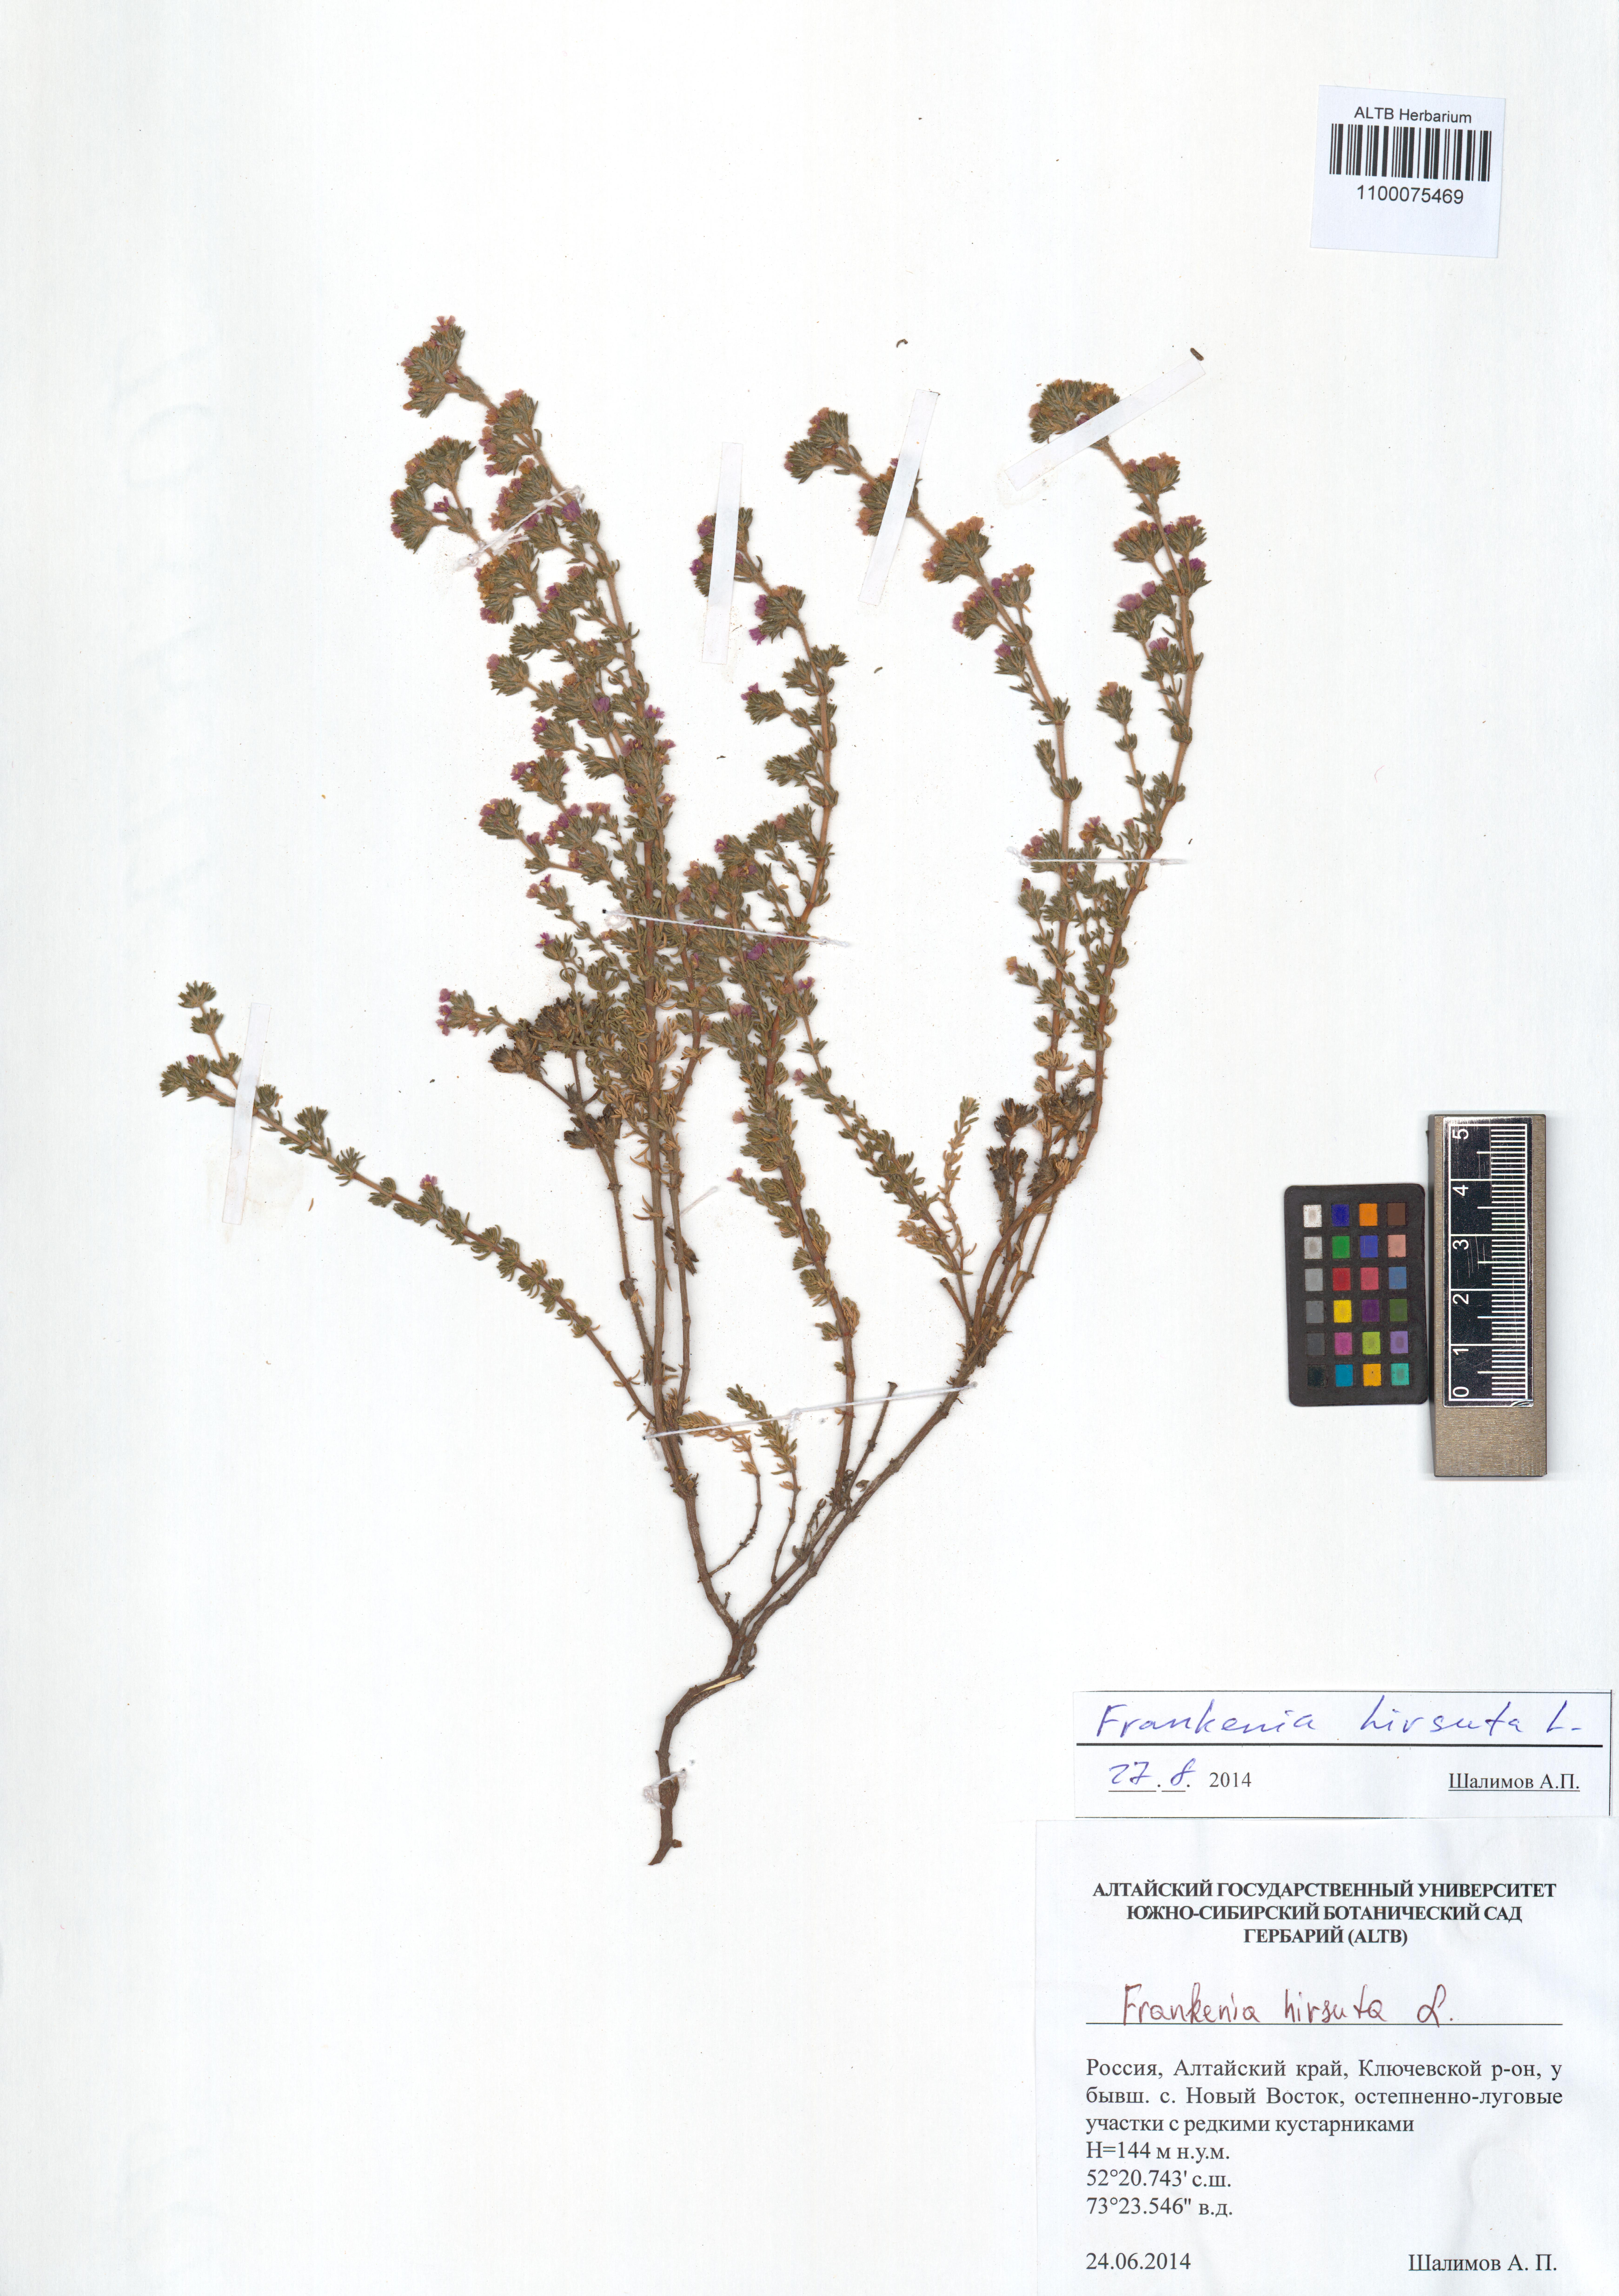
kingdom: Plantae
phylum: Tracheophyta
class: Magnoliopsida
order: Caryophyllales
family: Frankeniaceae
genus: Frankenia
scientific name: Frankenia hirsuta
